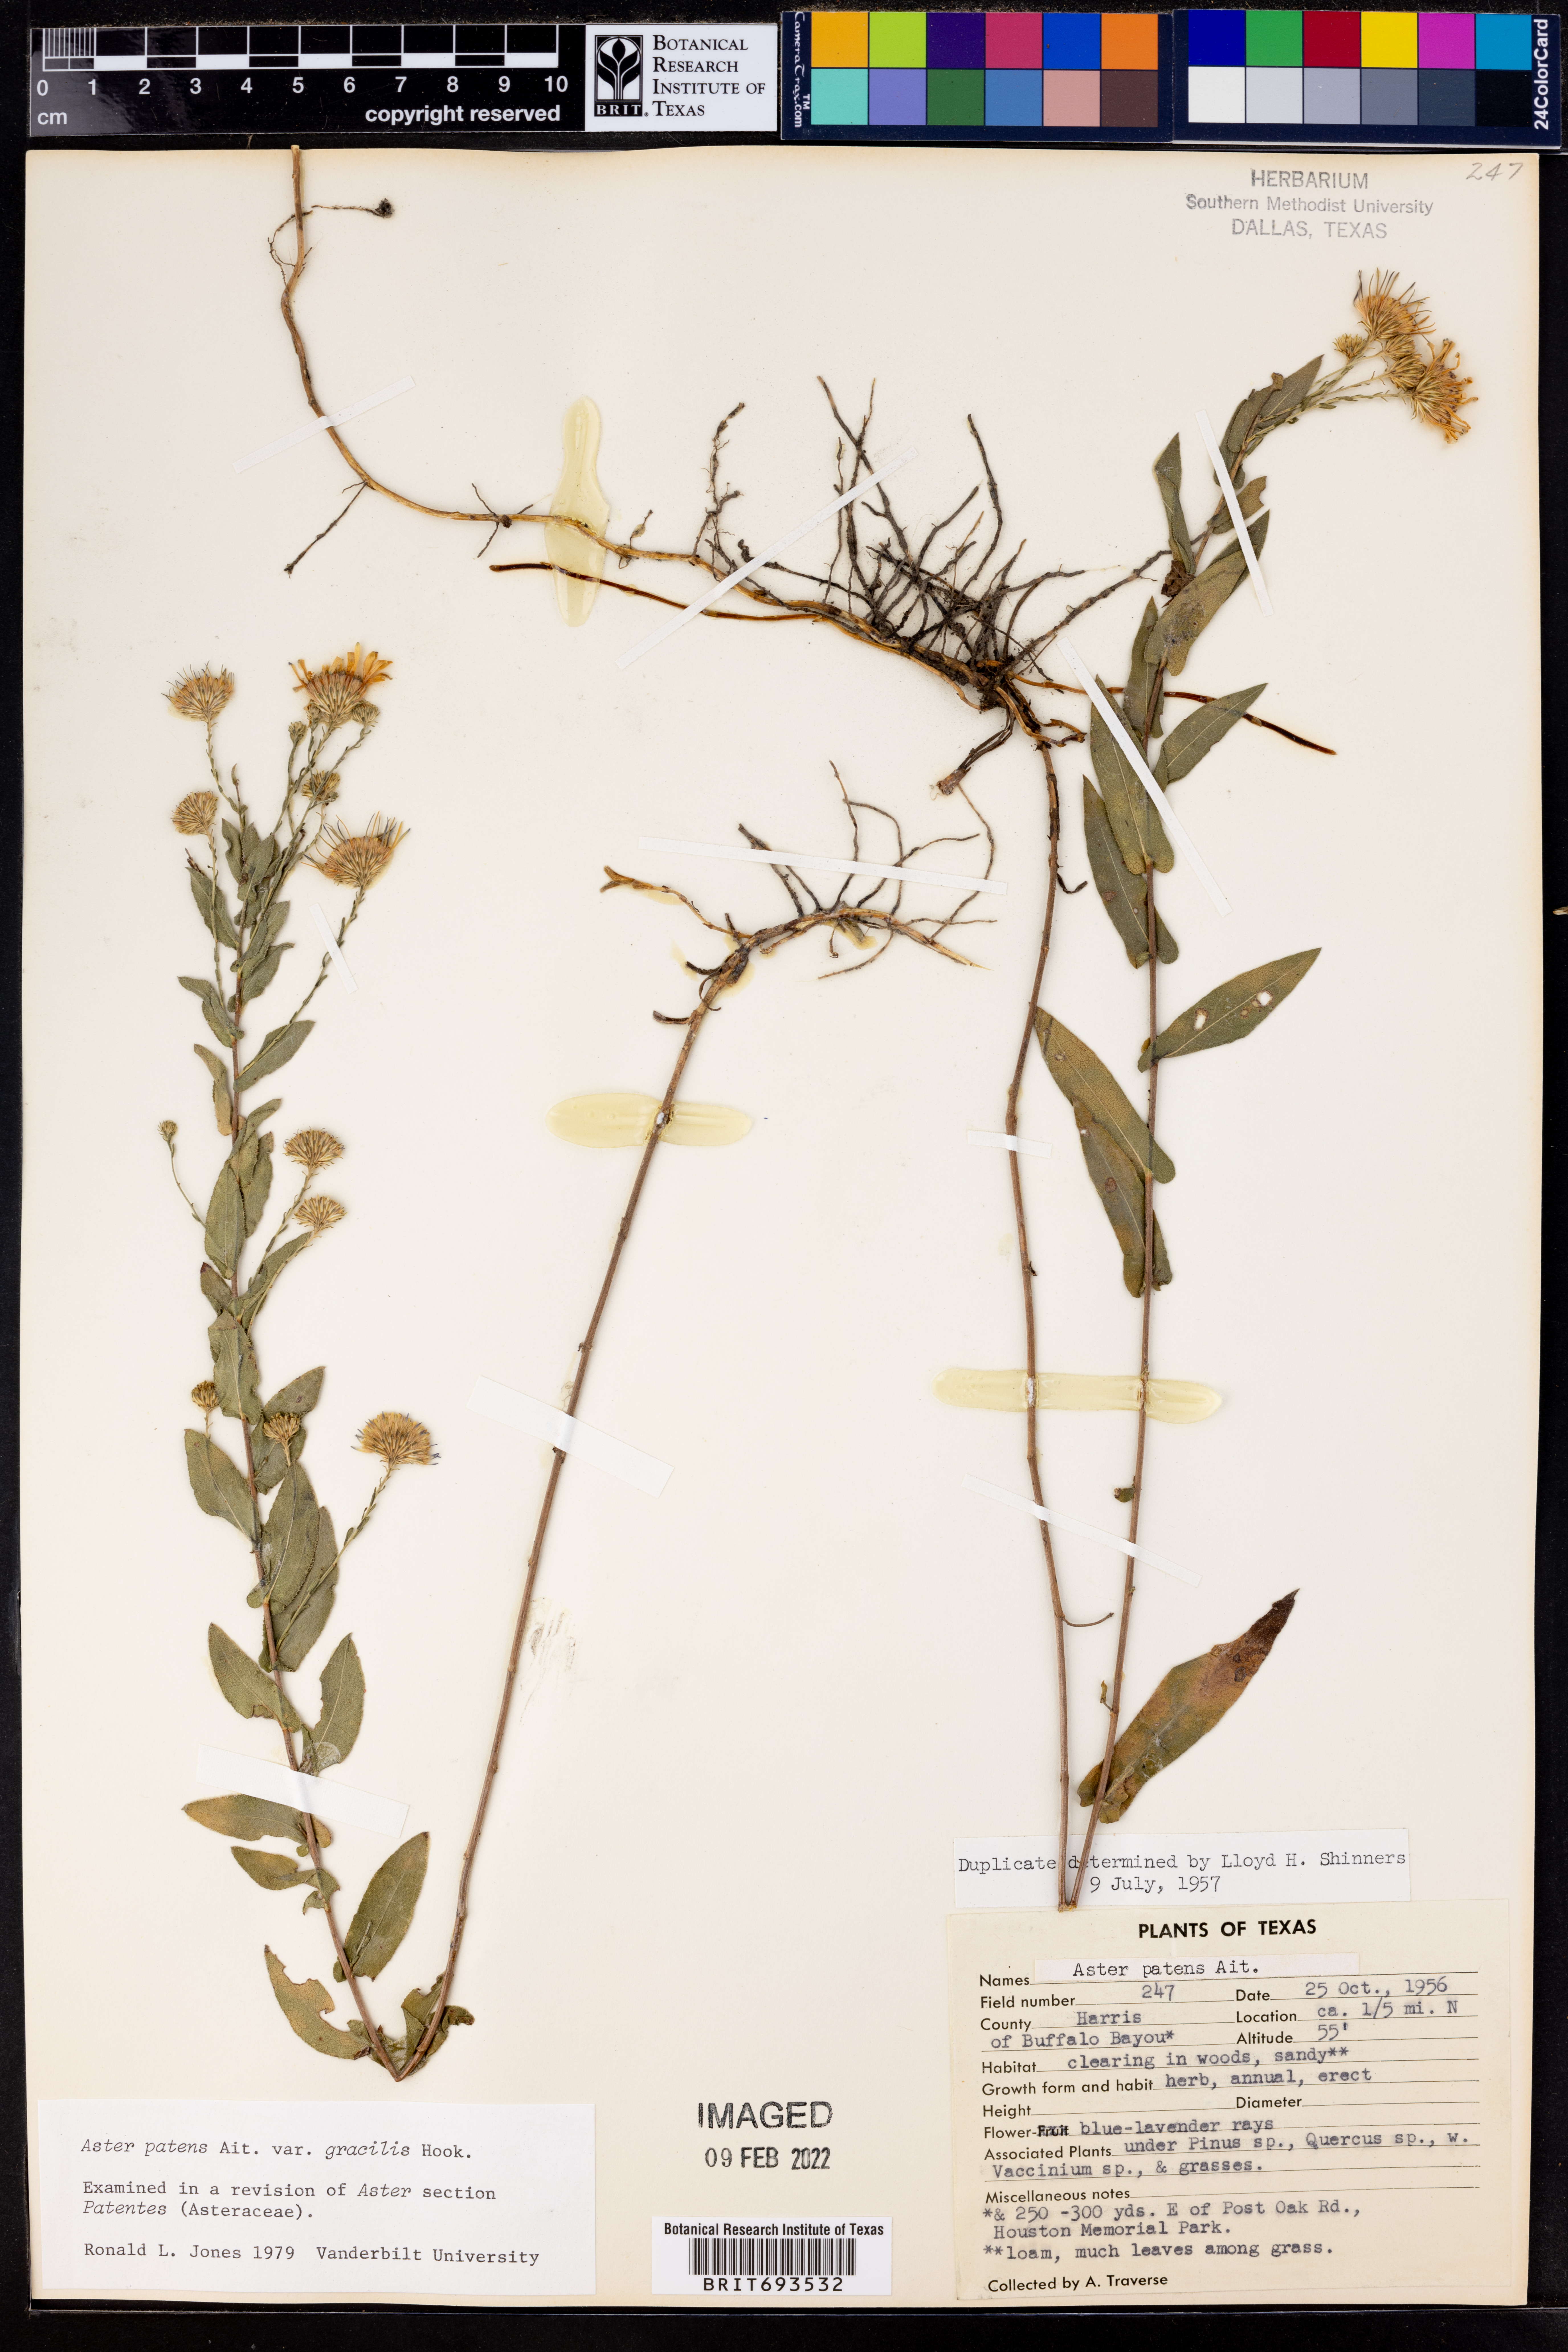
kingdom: Plantae
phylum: Tracheophyta
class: Magnoliopsida
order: Asterales
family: Asteraceae
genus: Symphyotrichum
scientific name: Symphyotrichum patens
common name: Late purple aster
